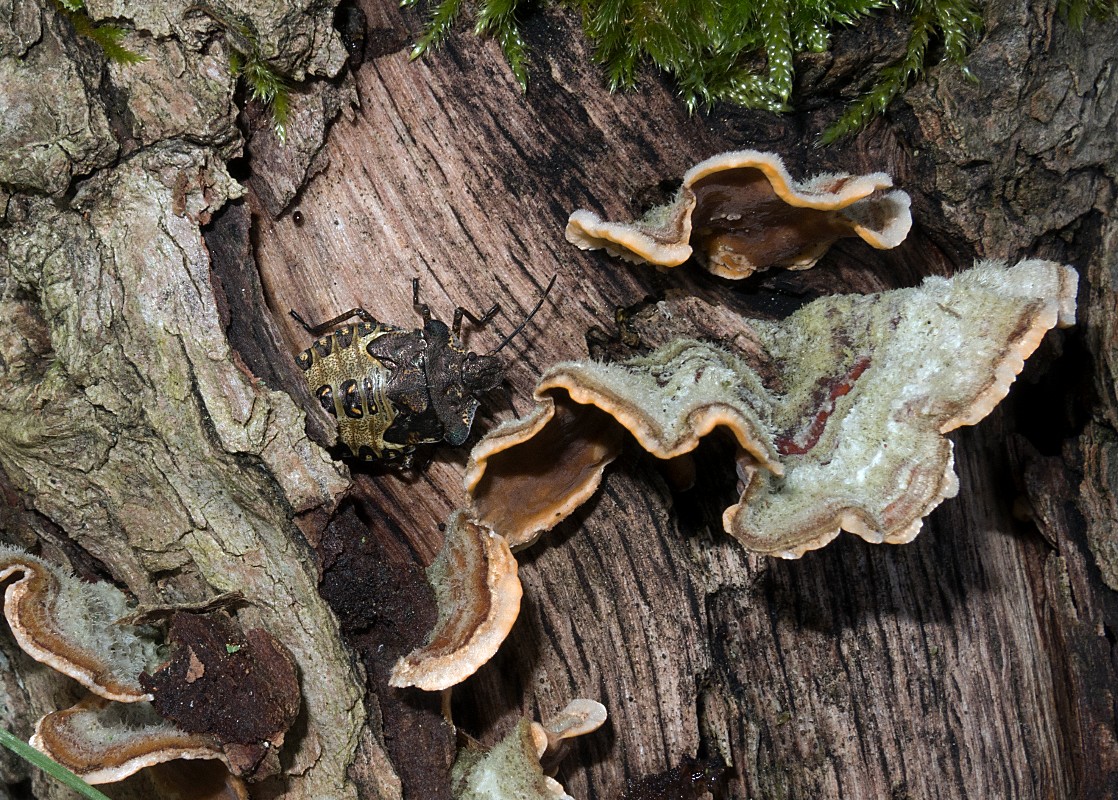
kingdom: Fungi
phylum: Basidiomycota
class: Agaricomycetes
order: Russulales
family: Stereaceae
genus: Stereum
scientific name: Stereum hirsutum
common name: håret lædersvamp
